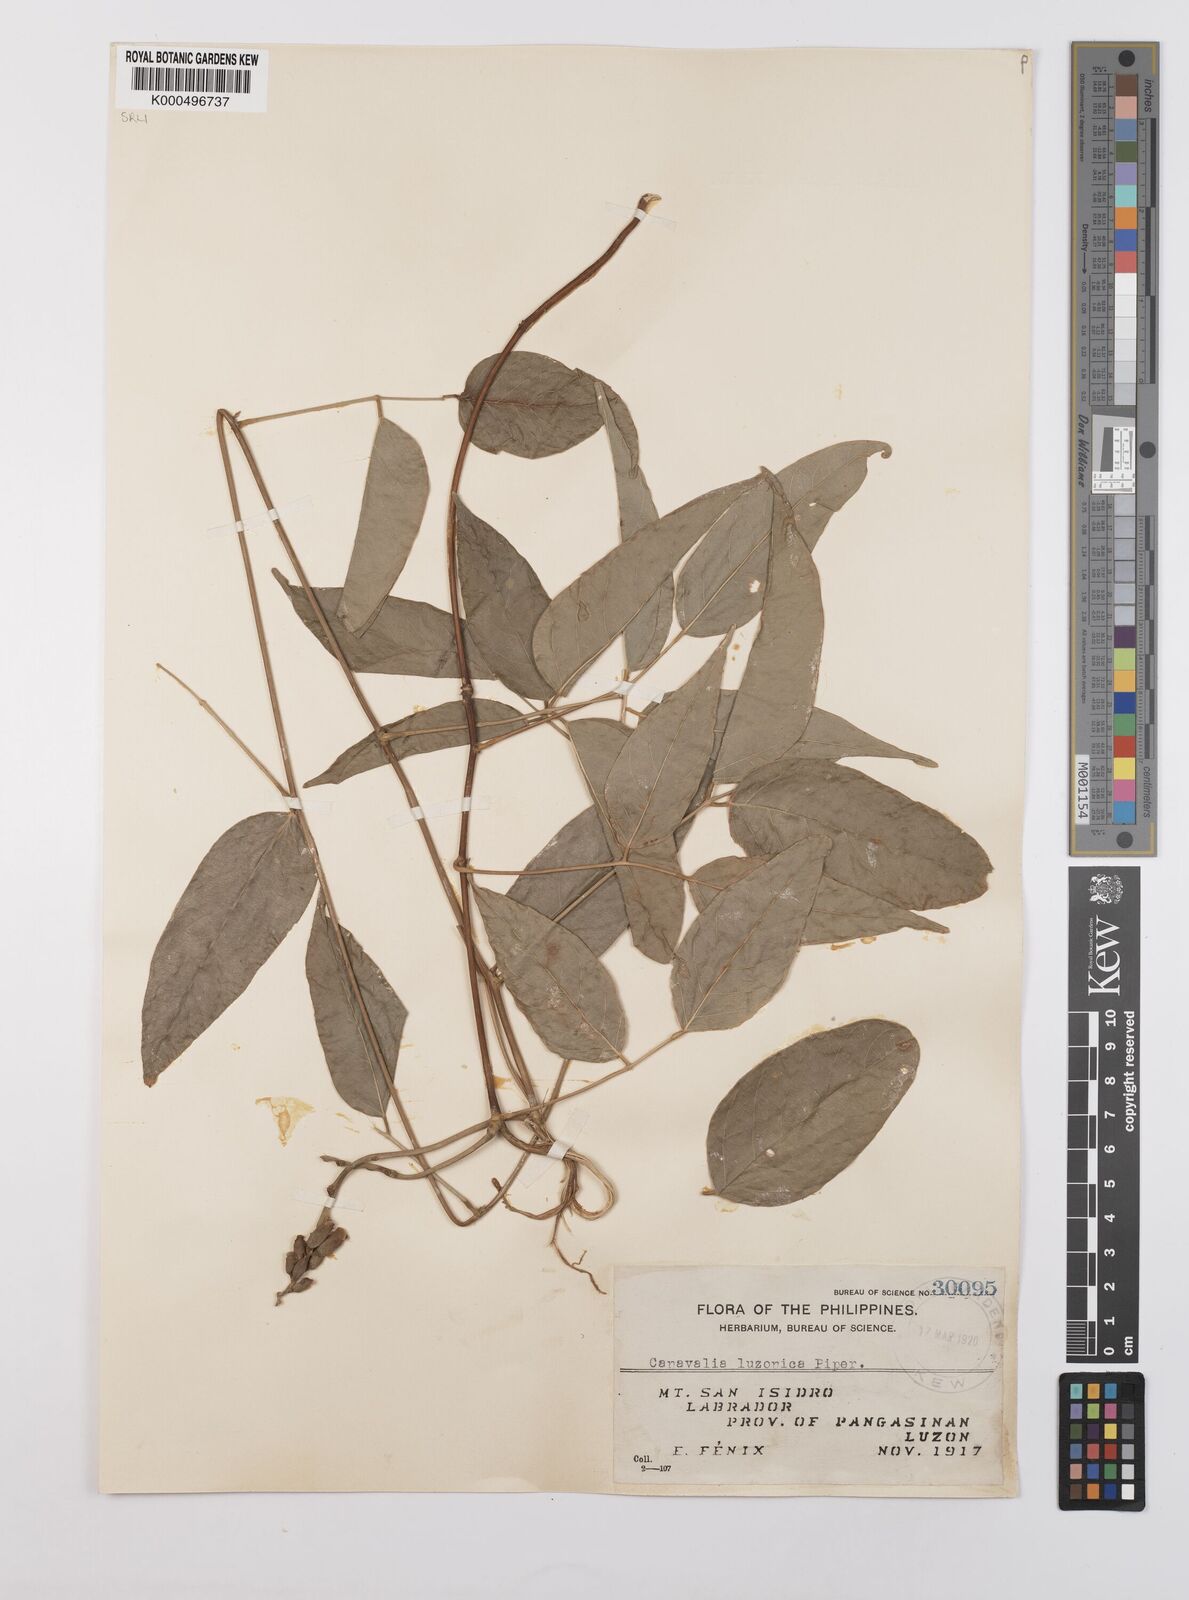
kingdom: Plantae
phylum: Tracheophyta
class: Magnoliopsida
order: Fabales
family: Fabaceae
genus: Canavalia
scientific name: Canavalia macrobotrys
